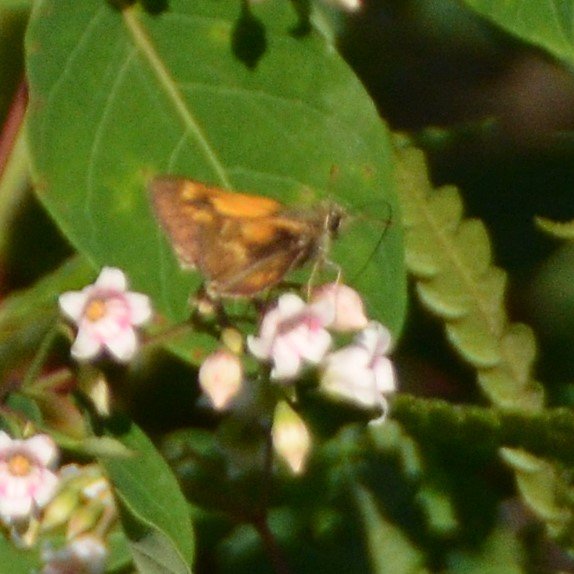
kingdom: Animalia
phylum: Arthropoda
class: Insecta
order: Lepidoptera
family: Hesperiidae
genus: Polites
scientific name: Polites
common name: Long Dash Skipper
